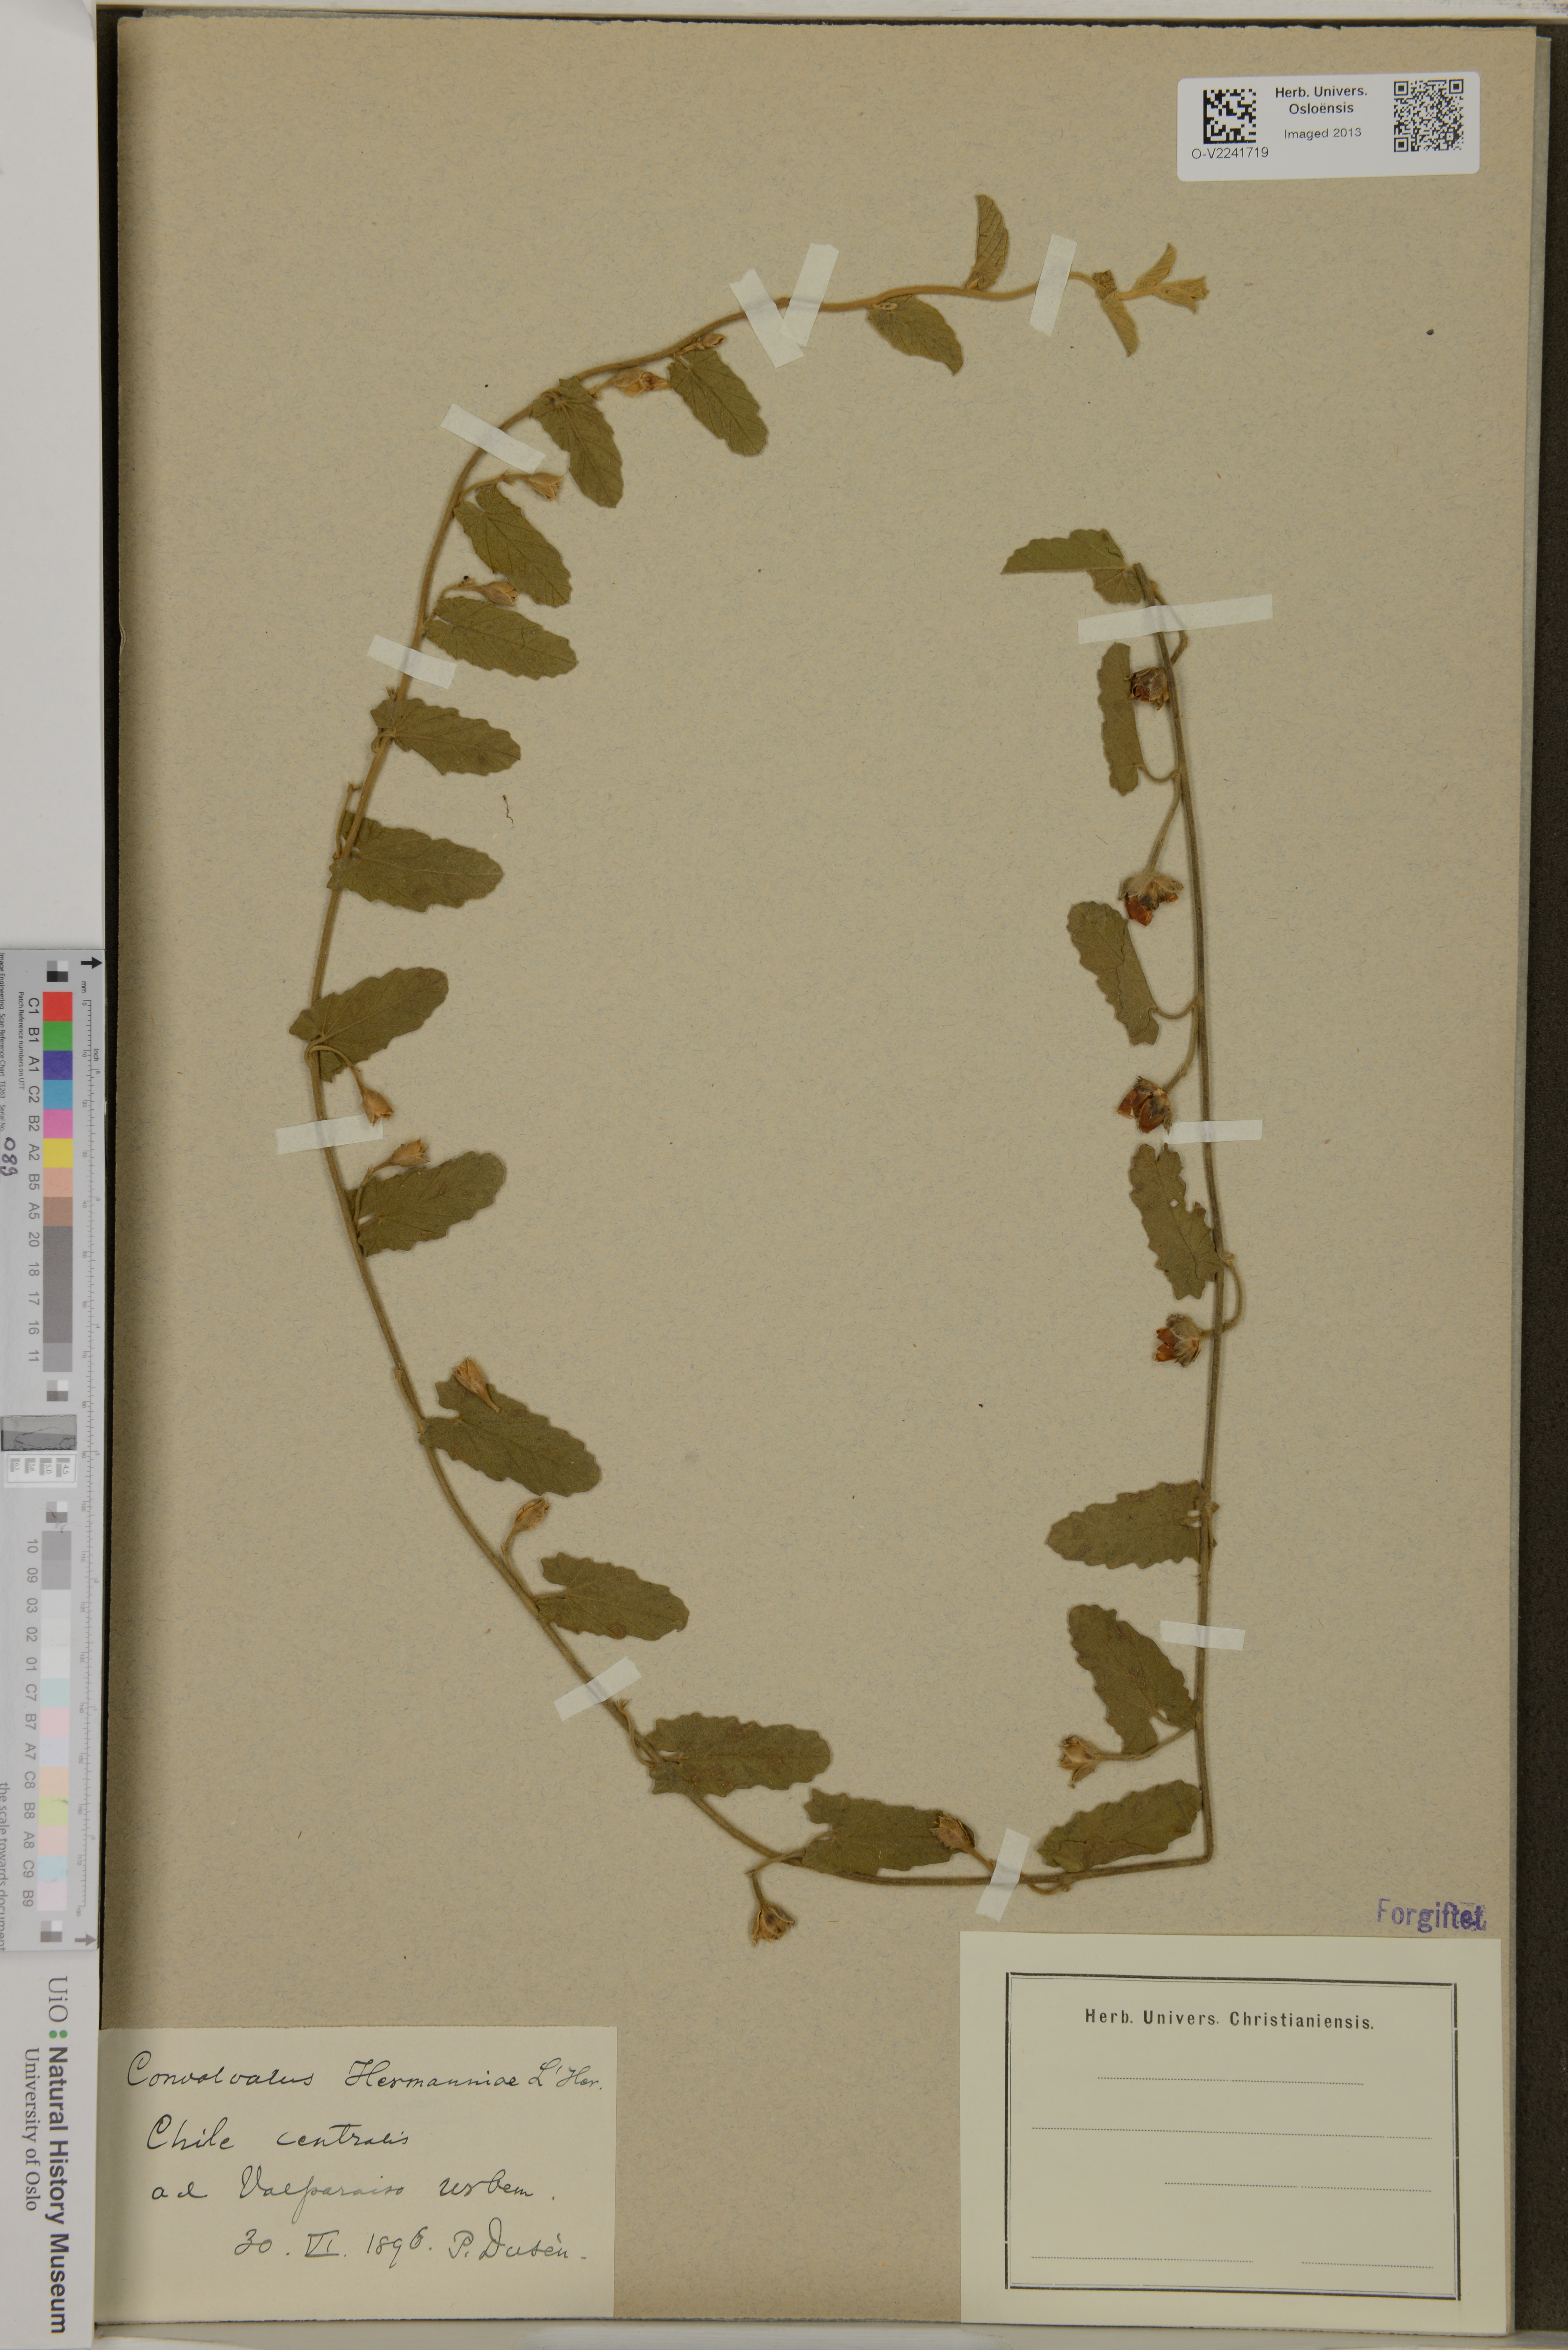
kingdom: Plantae
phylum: Tracheophyta
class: Magnoliopsida
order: Solanales
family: Convolvulaceae
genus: Convolvulus
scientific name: Convolvulus hermanniae
